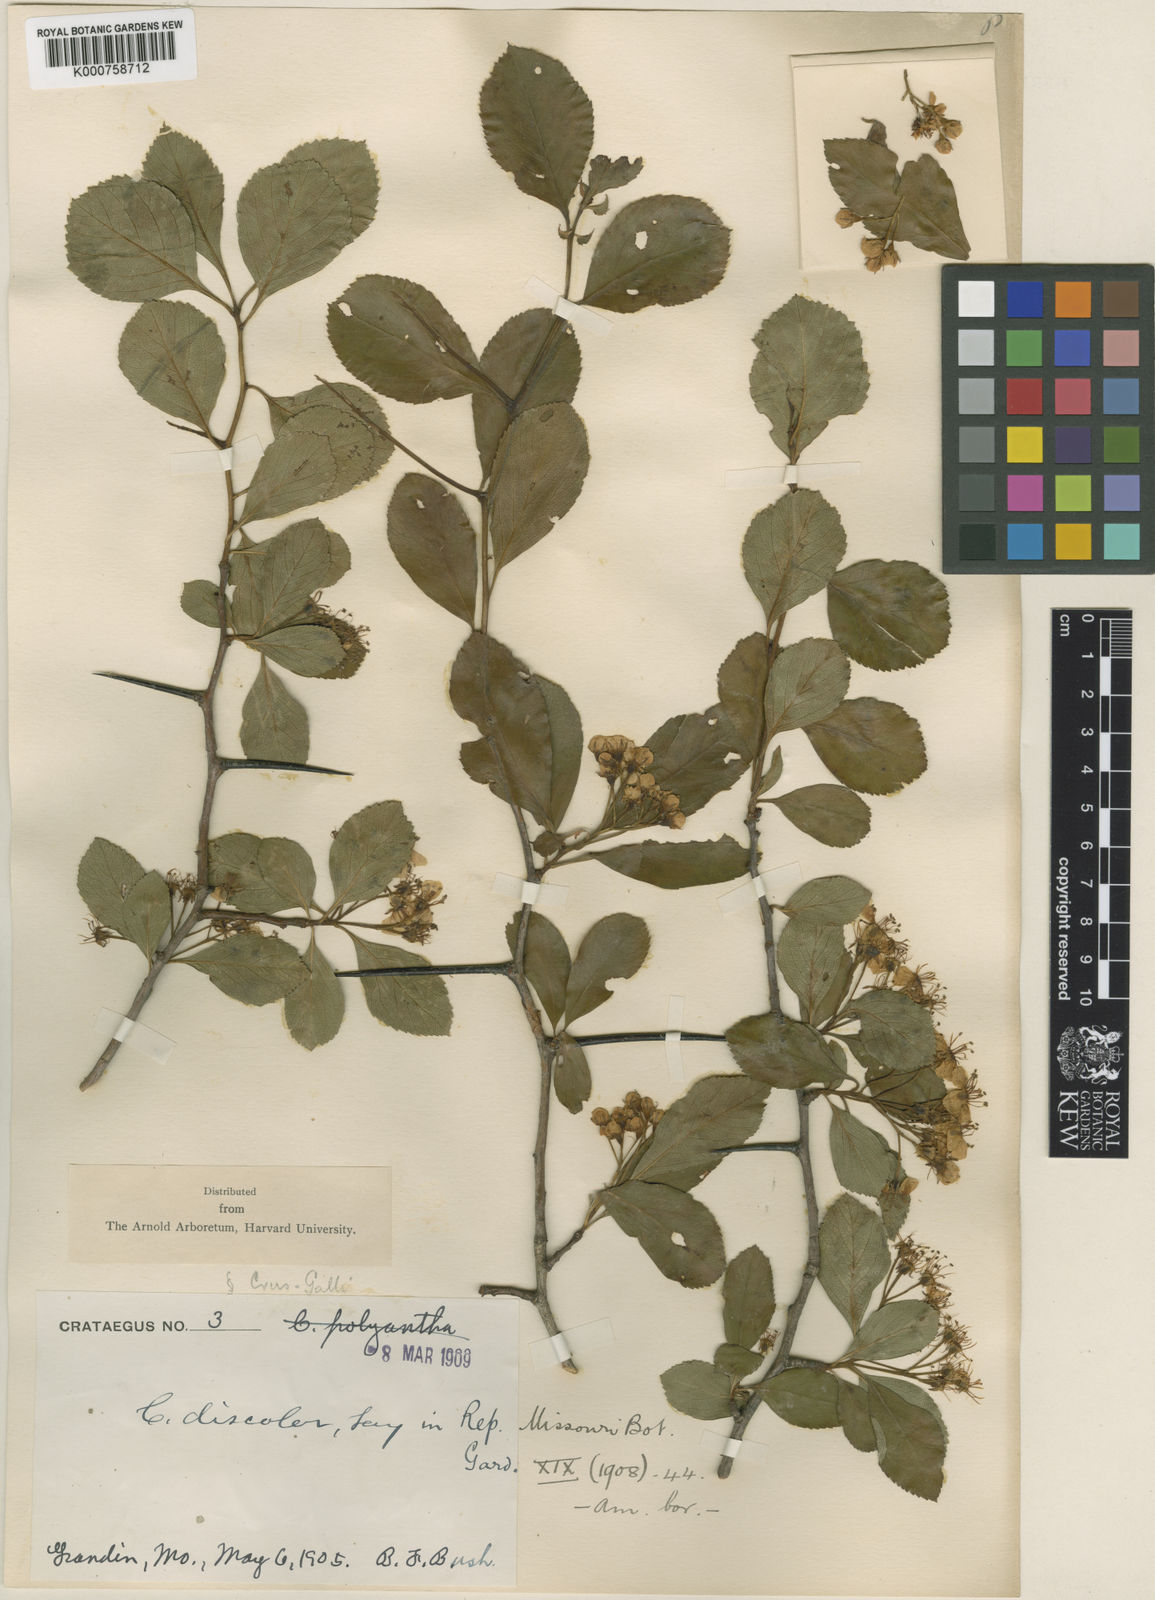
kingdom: Plantae
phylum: Tracheophyta
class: Magnoliopsida
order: Rosales
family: Rosaceae
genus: Crataegus
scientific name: Crataegus reverchonii
